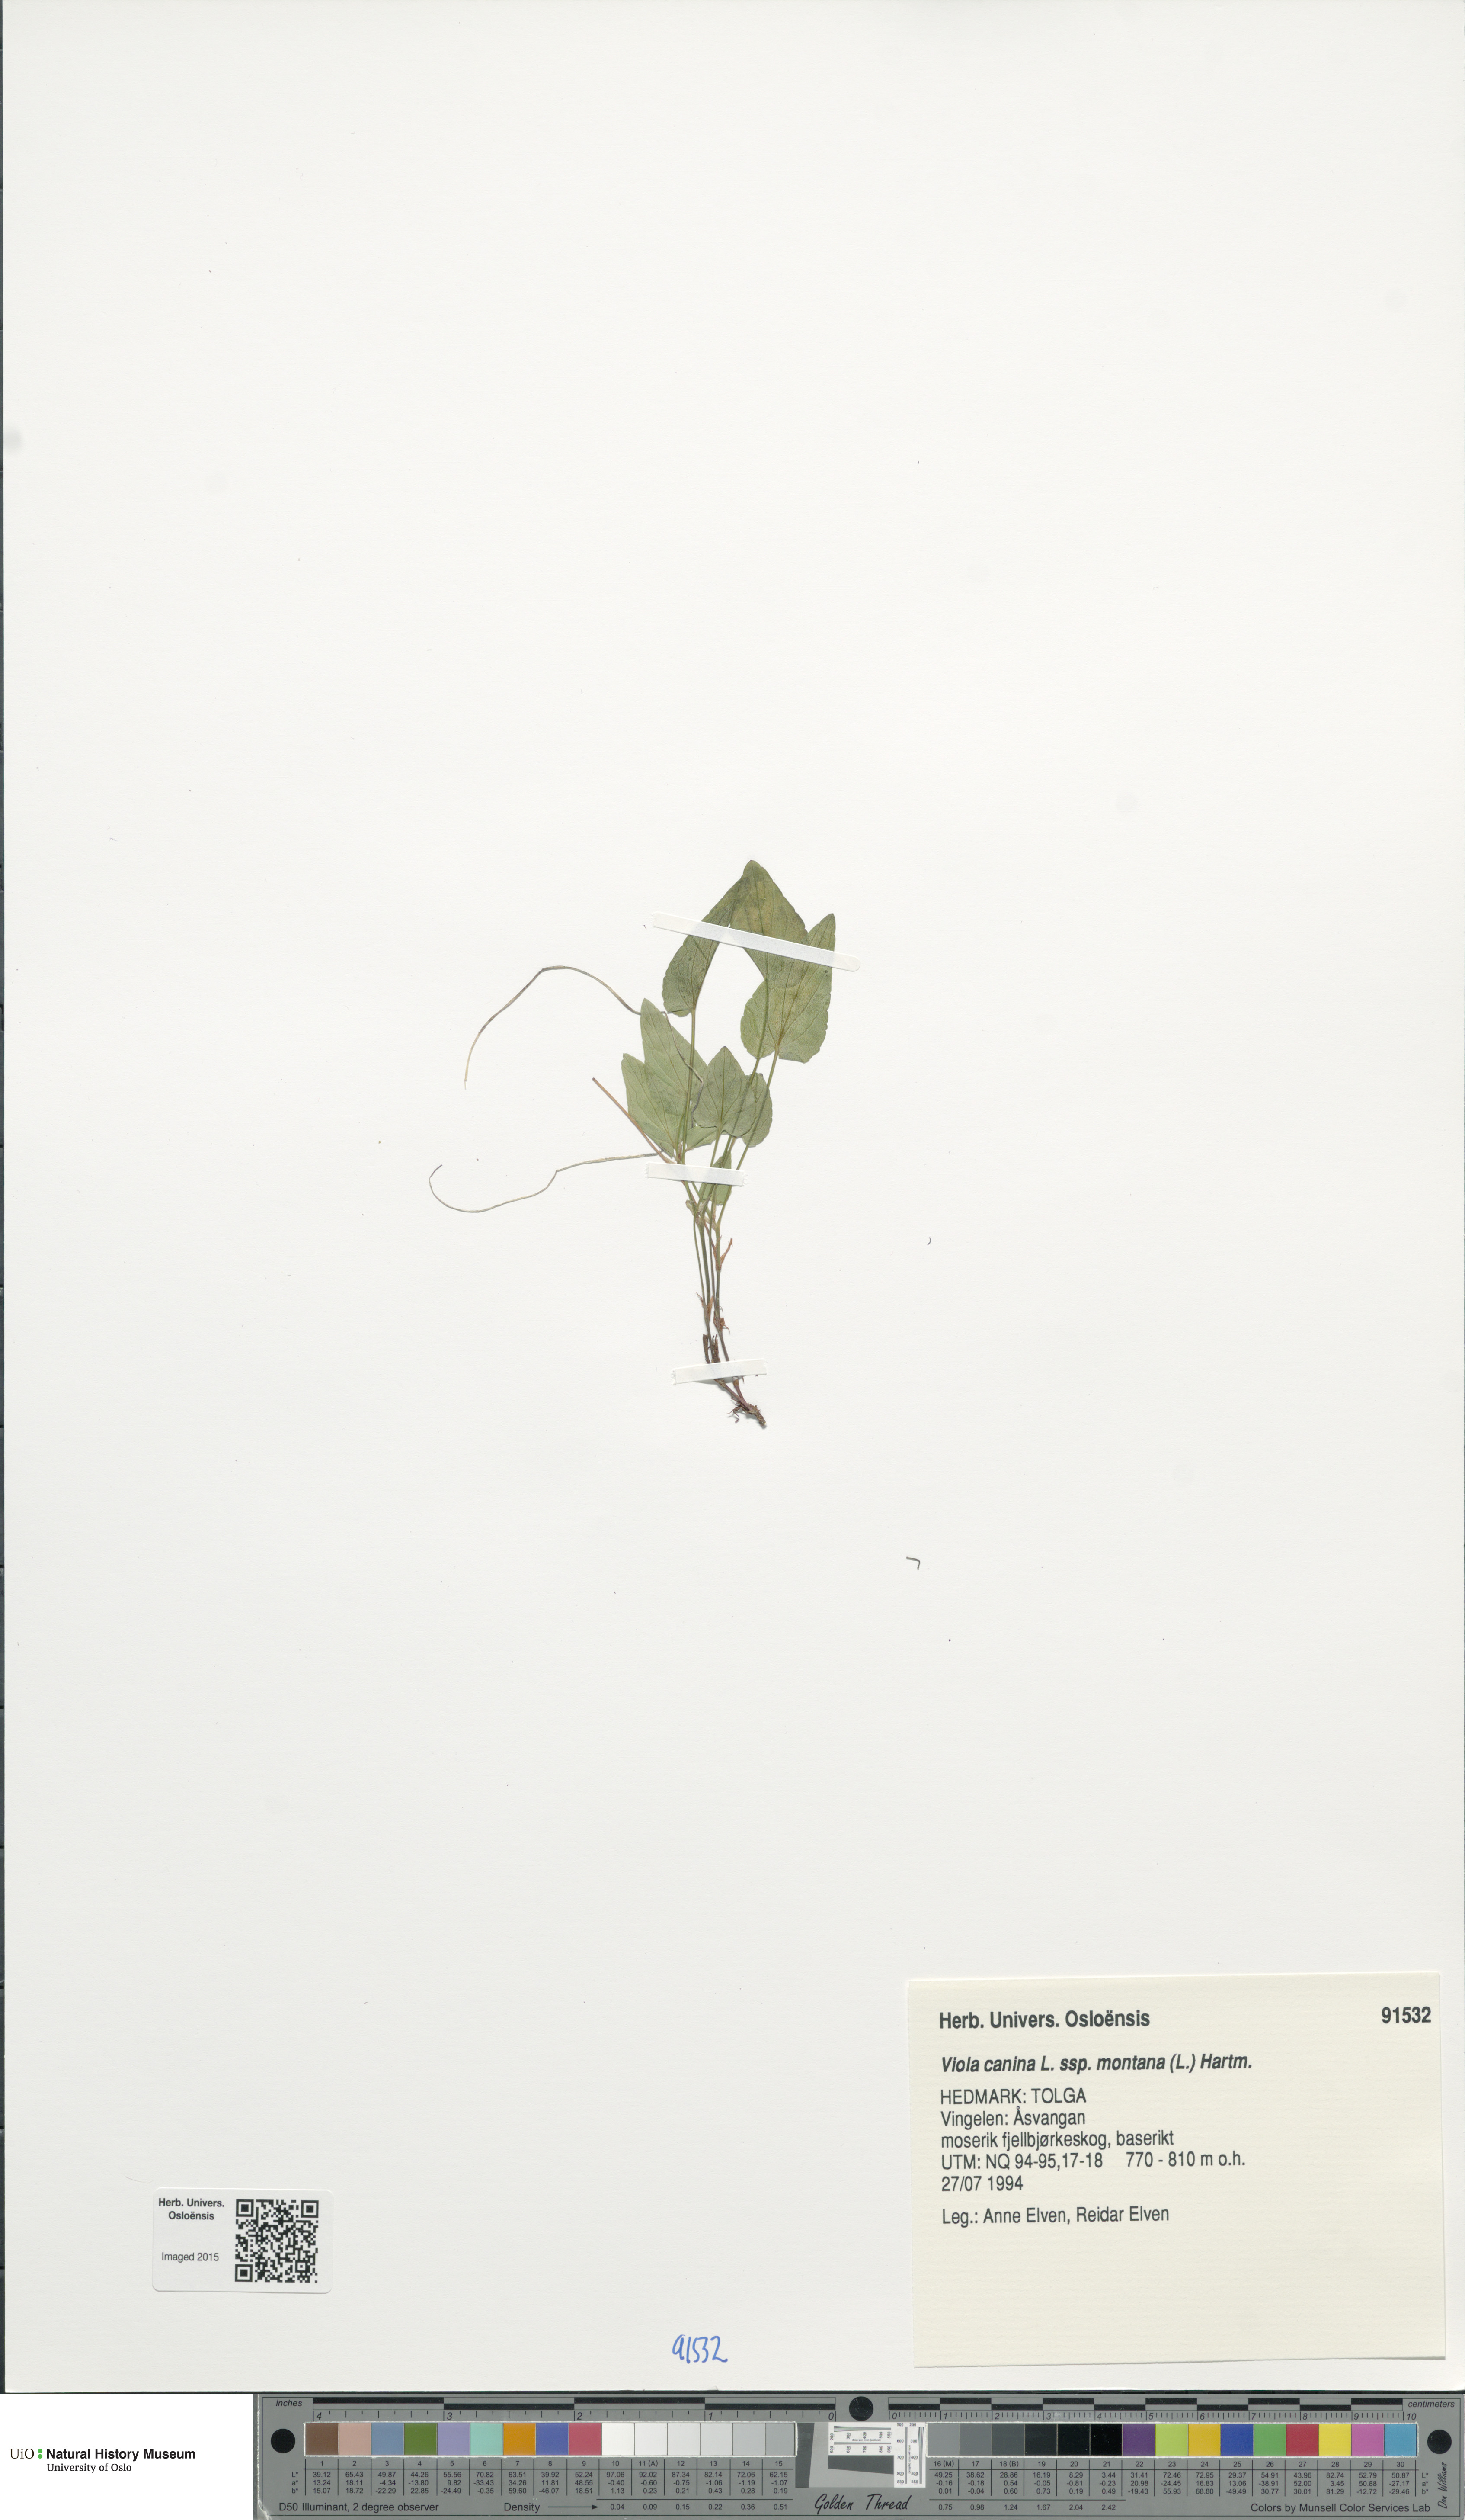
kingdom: Plantae
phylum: Tracheophyta
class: Magnoliopsida
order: Malpighiales
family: Violaceae
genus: Viola
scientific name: Viola ruppii
